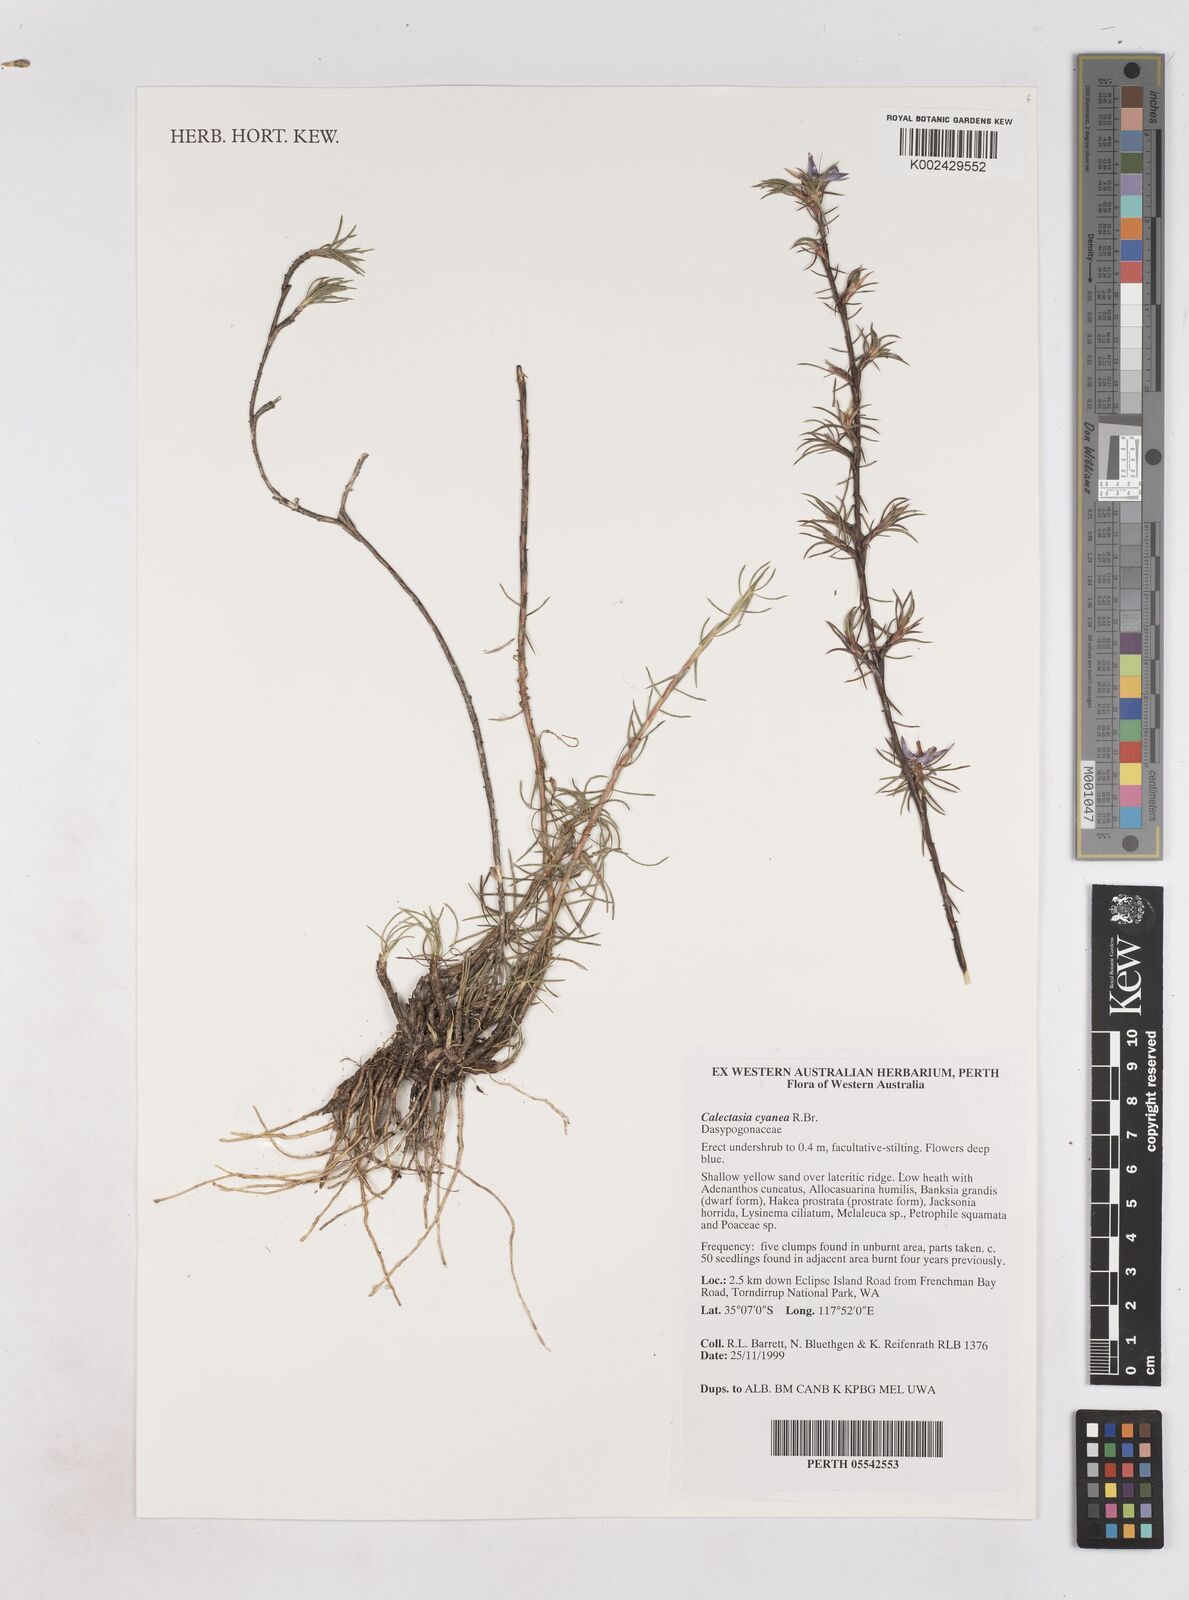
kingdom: Plantae
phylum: Tracheophyta
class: Liliopsida
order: Arecales
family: Dasypogonaceae
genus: Calectasia
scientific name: Calectasia cyanea
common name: Blue tinsel-lily
